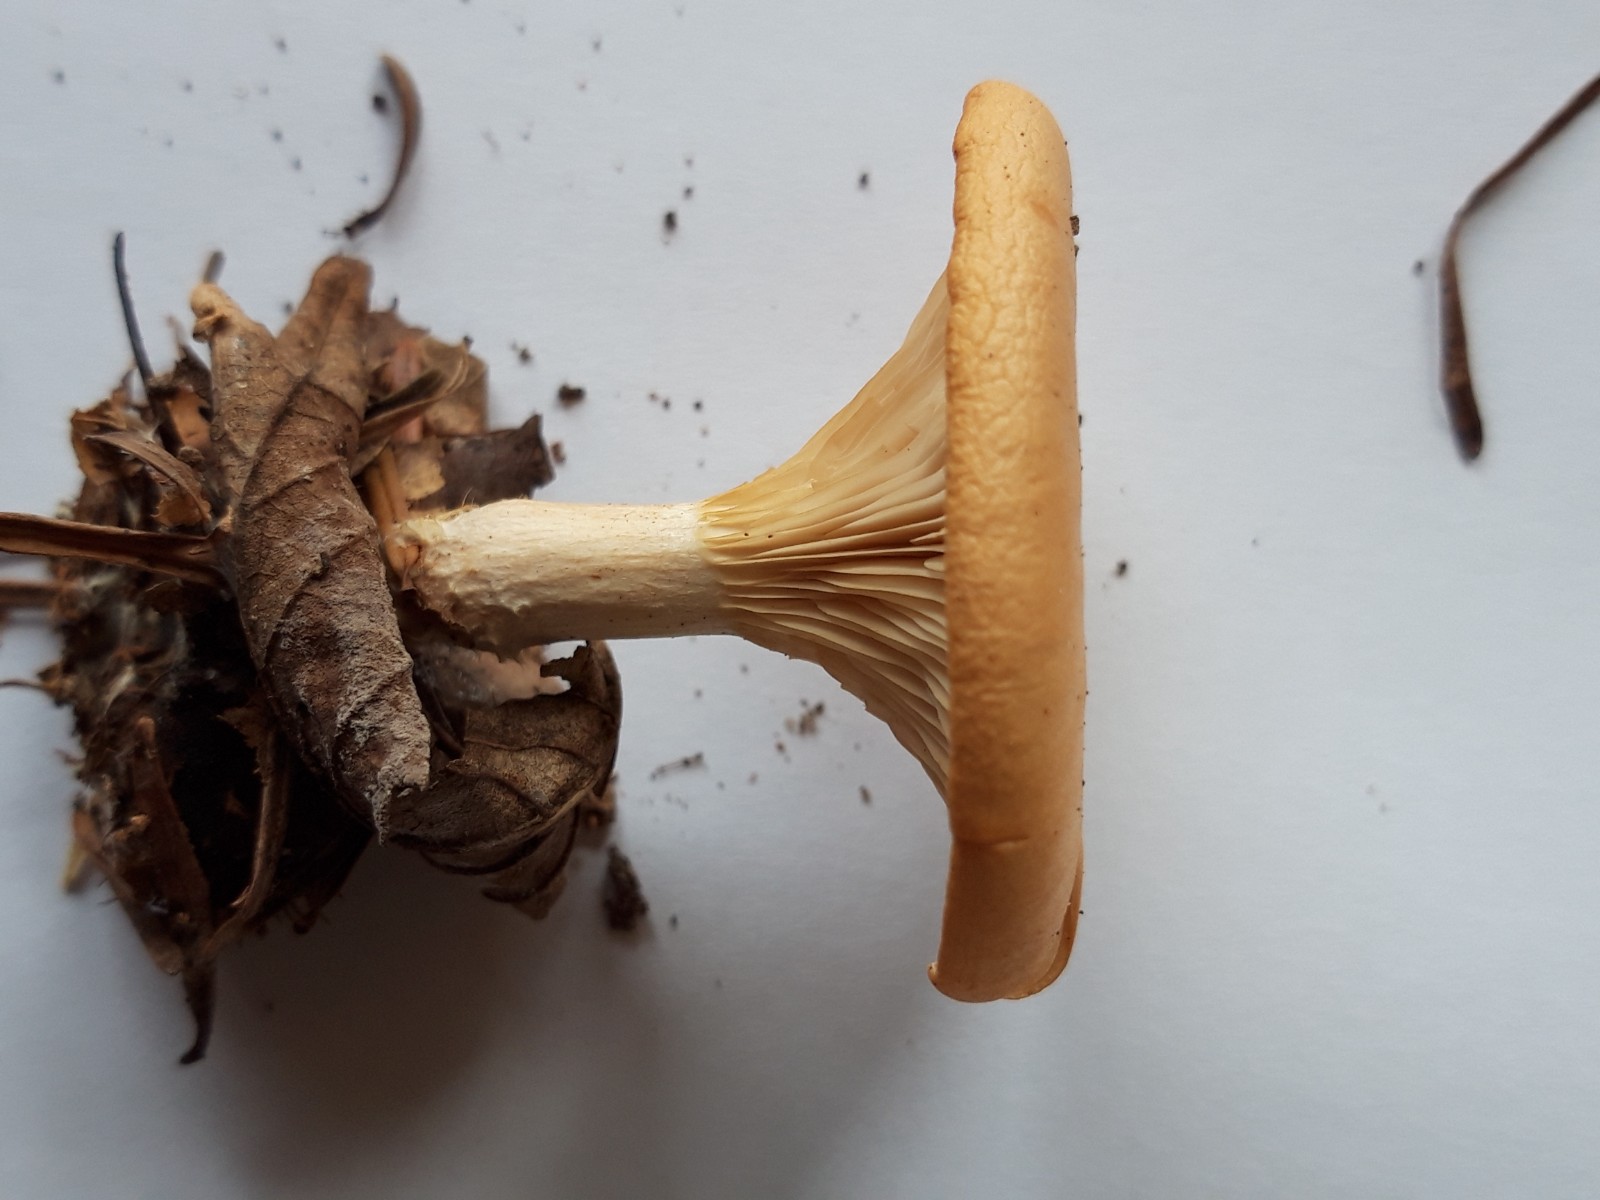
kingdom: Fungi
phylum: Basidiomycota
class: Agaricomycetes
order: Agaricales
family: Tricholomataceae
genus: Paralepista
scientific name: Paralepista flaccida
